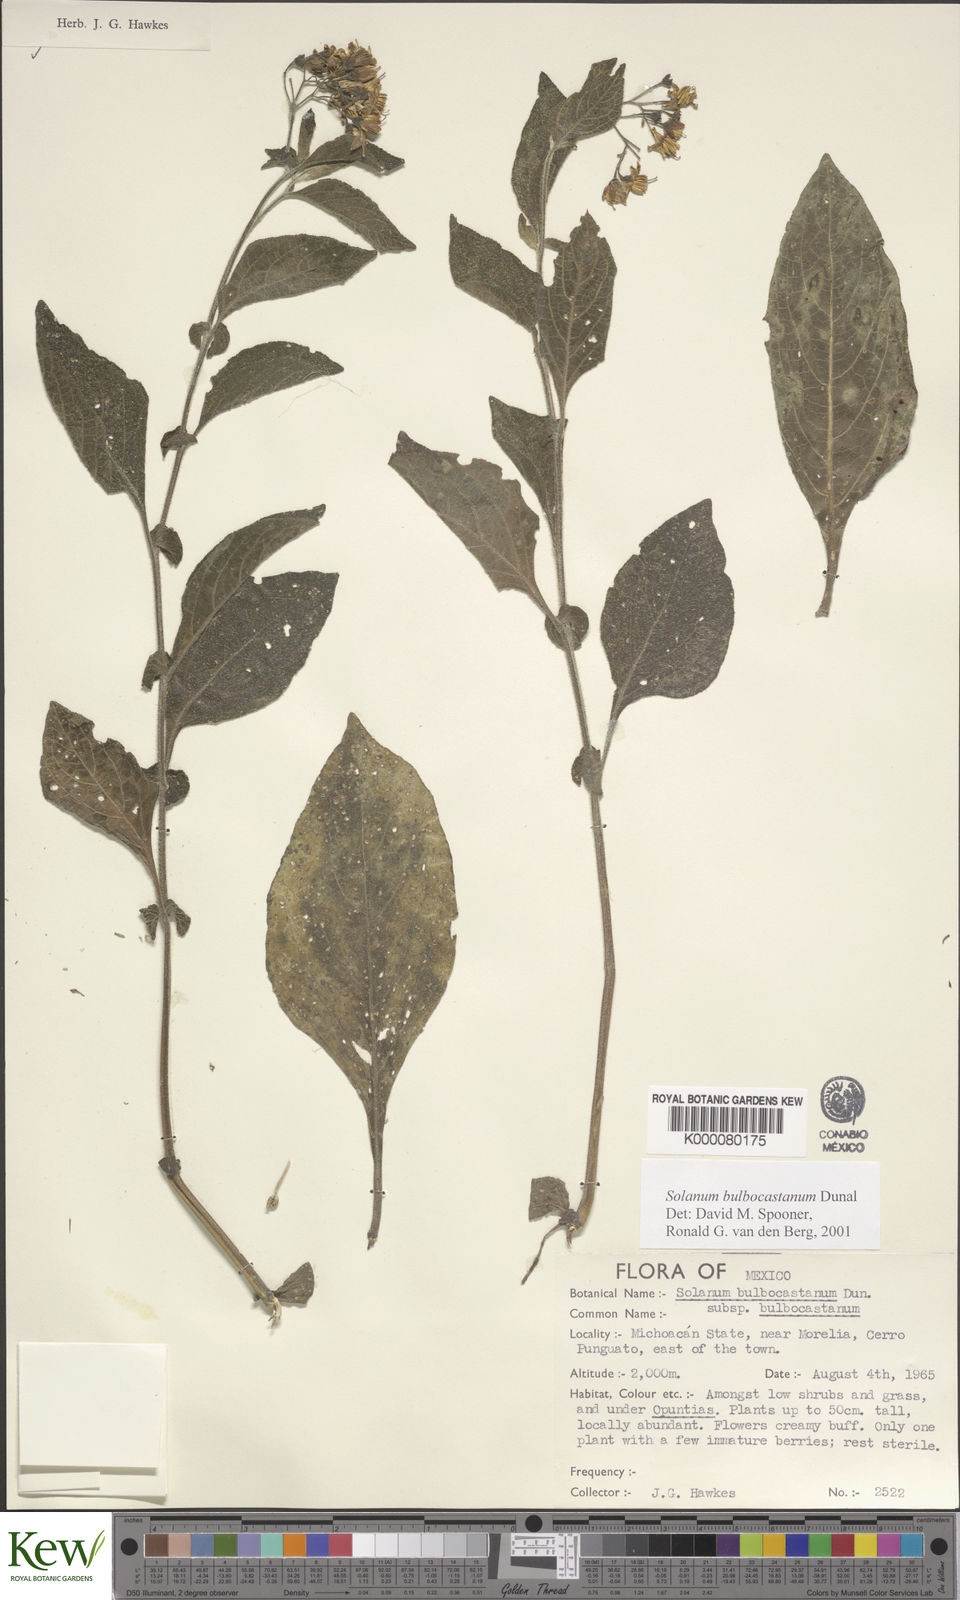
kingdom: Plantae
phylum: Tracheophyta
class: Magnoliopsida
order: Solanales
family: Solanaceae
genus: Solanum
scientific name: Solanum bulbocastanum
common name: Ornamental nightshade
